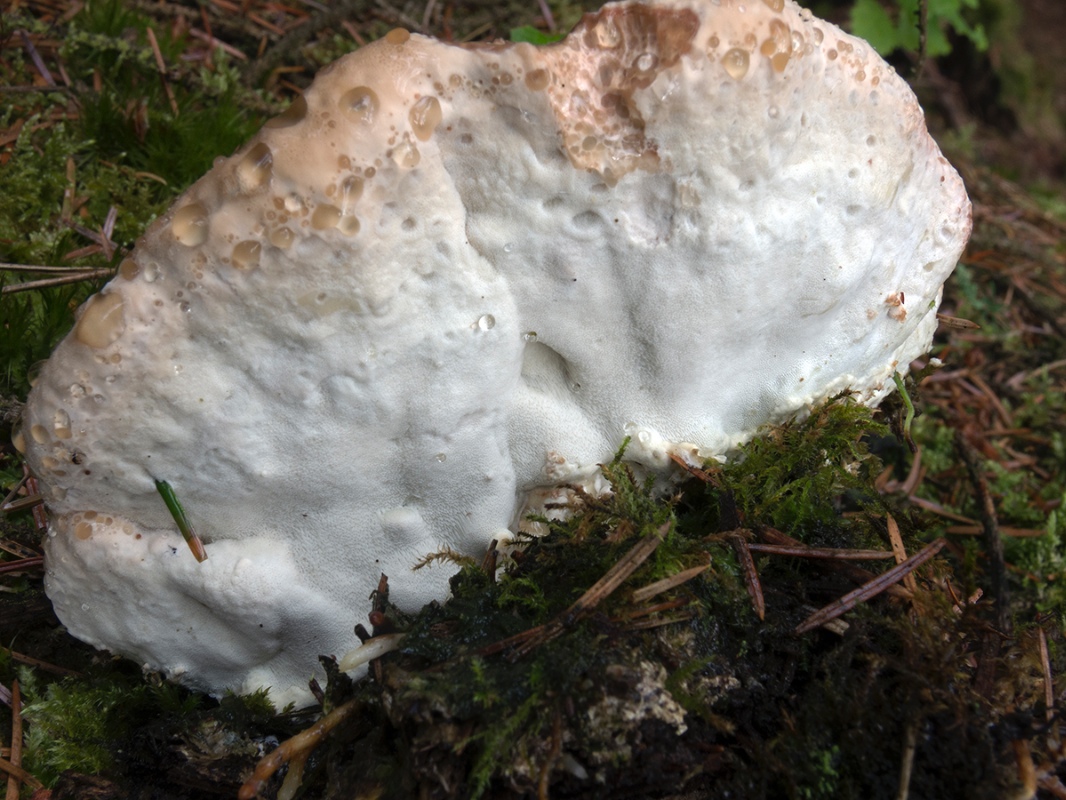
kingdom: Fungi
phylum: Basidiomycota
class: Agaricomycetes
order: Polyporales
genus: Calcipostia
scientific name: Calcipostia guttulata
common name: dråbe-kødporesvamp
